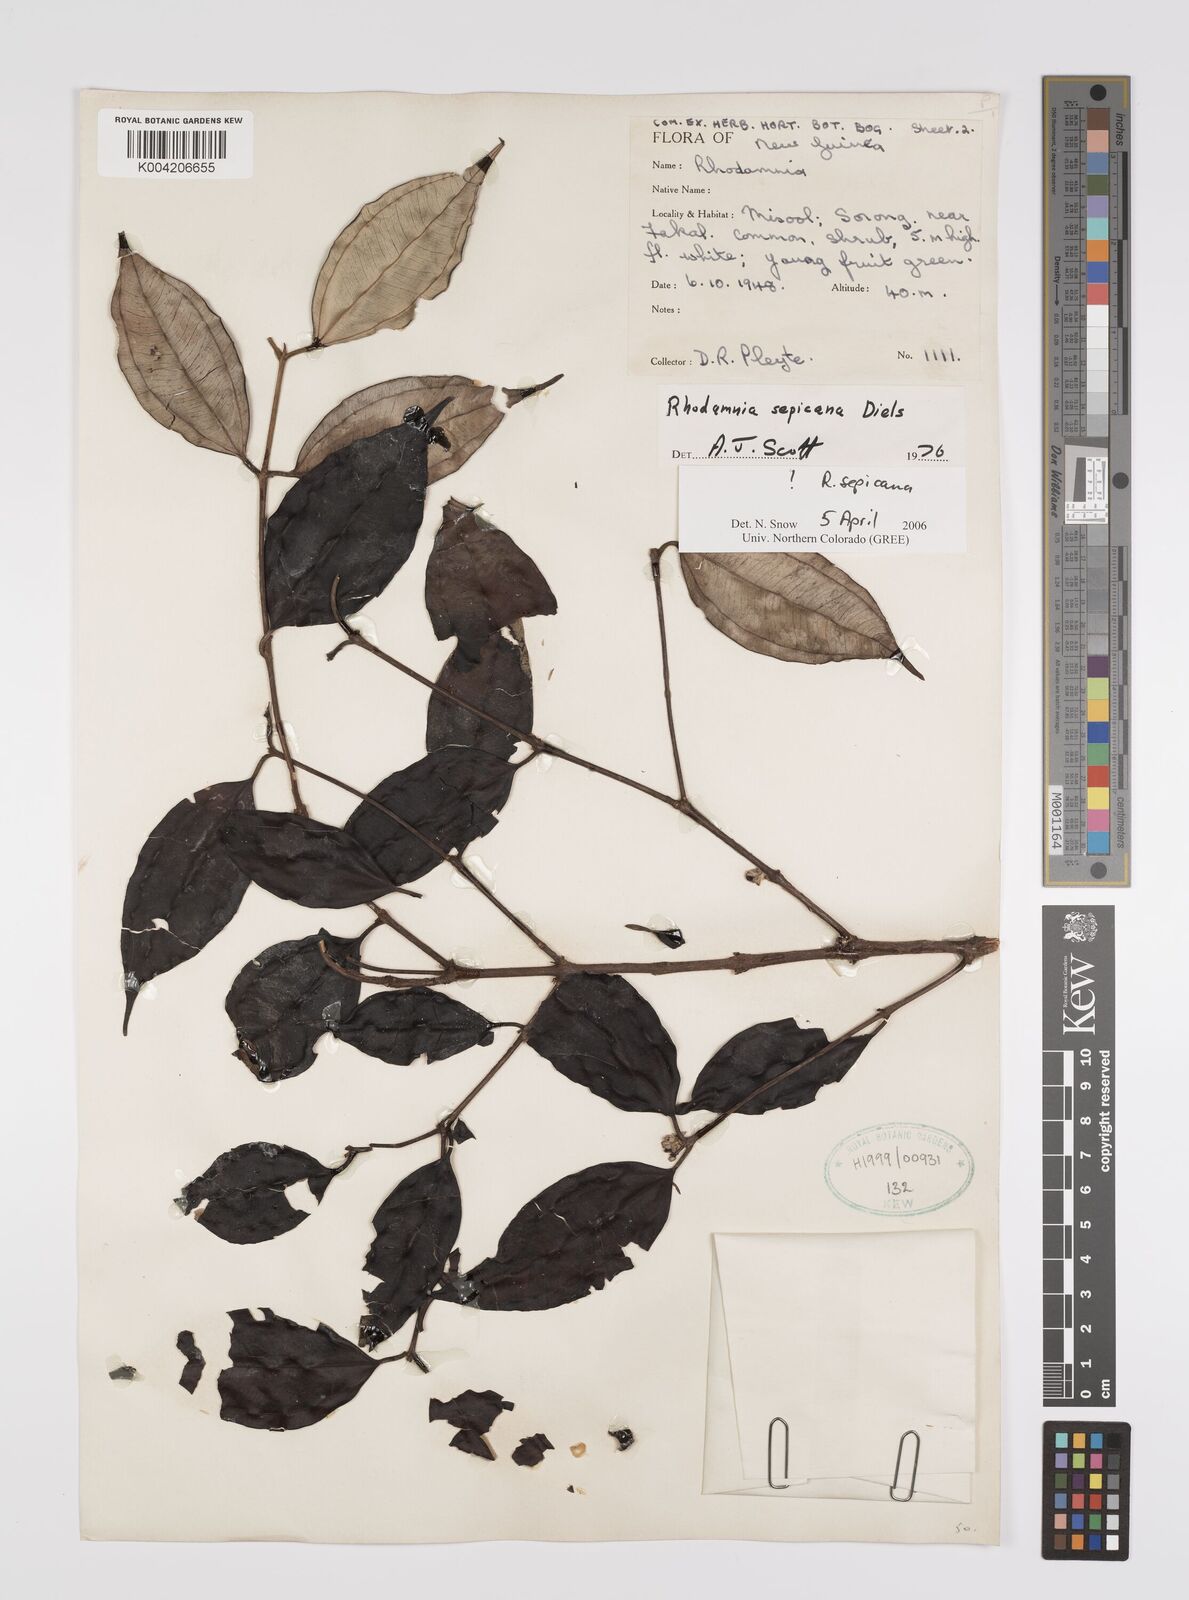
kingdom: Plantae
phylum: Tracheophyta
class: Magnoliopsida
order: Myrtales
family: Myrtaceae
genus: Rhodamnia
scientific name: Rhodamnia sepicana
